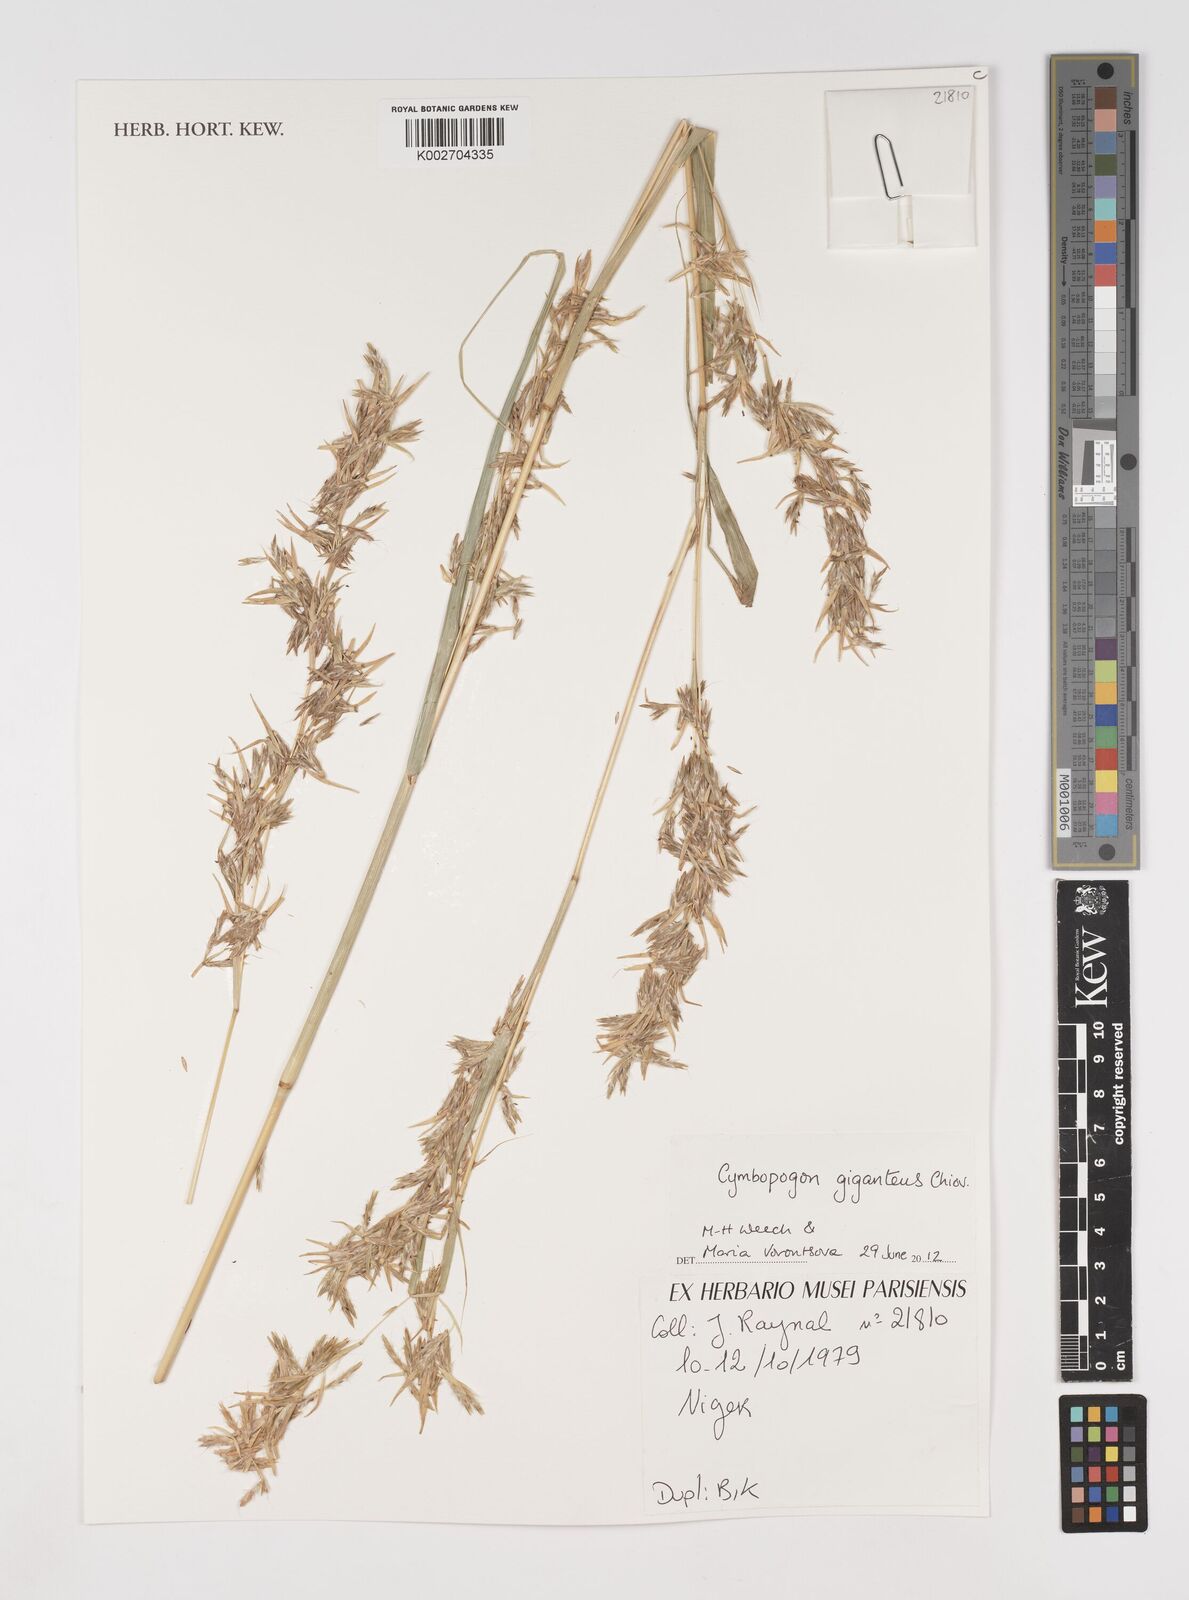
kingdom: Plantae
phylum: Tracheophyta
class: Liliopsida
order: Poales
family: Poaceae
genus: Cymbopogon
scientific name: Cymbopogon giganteus
